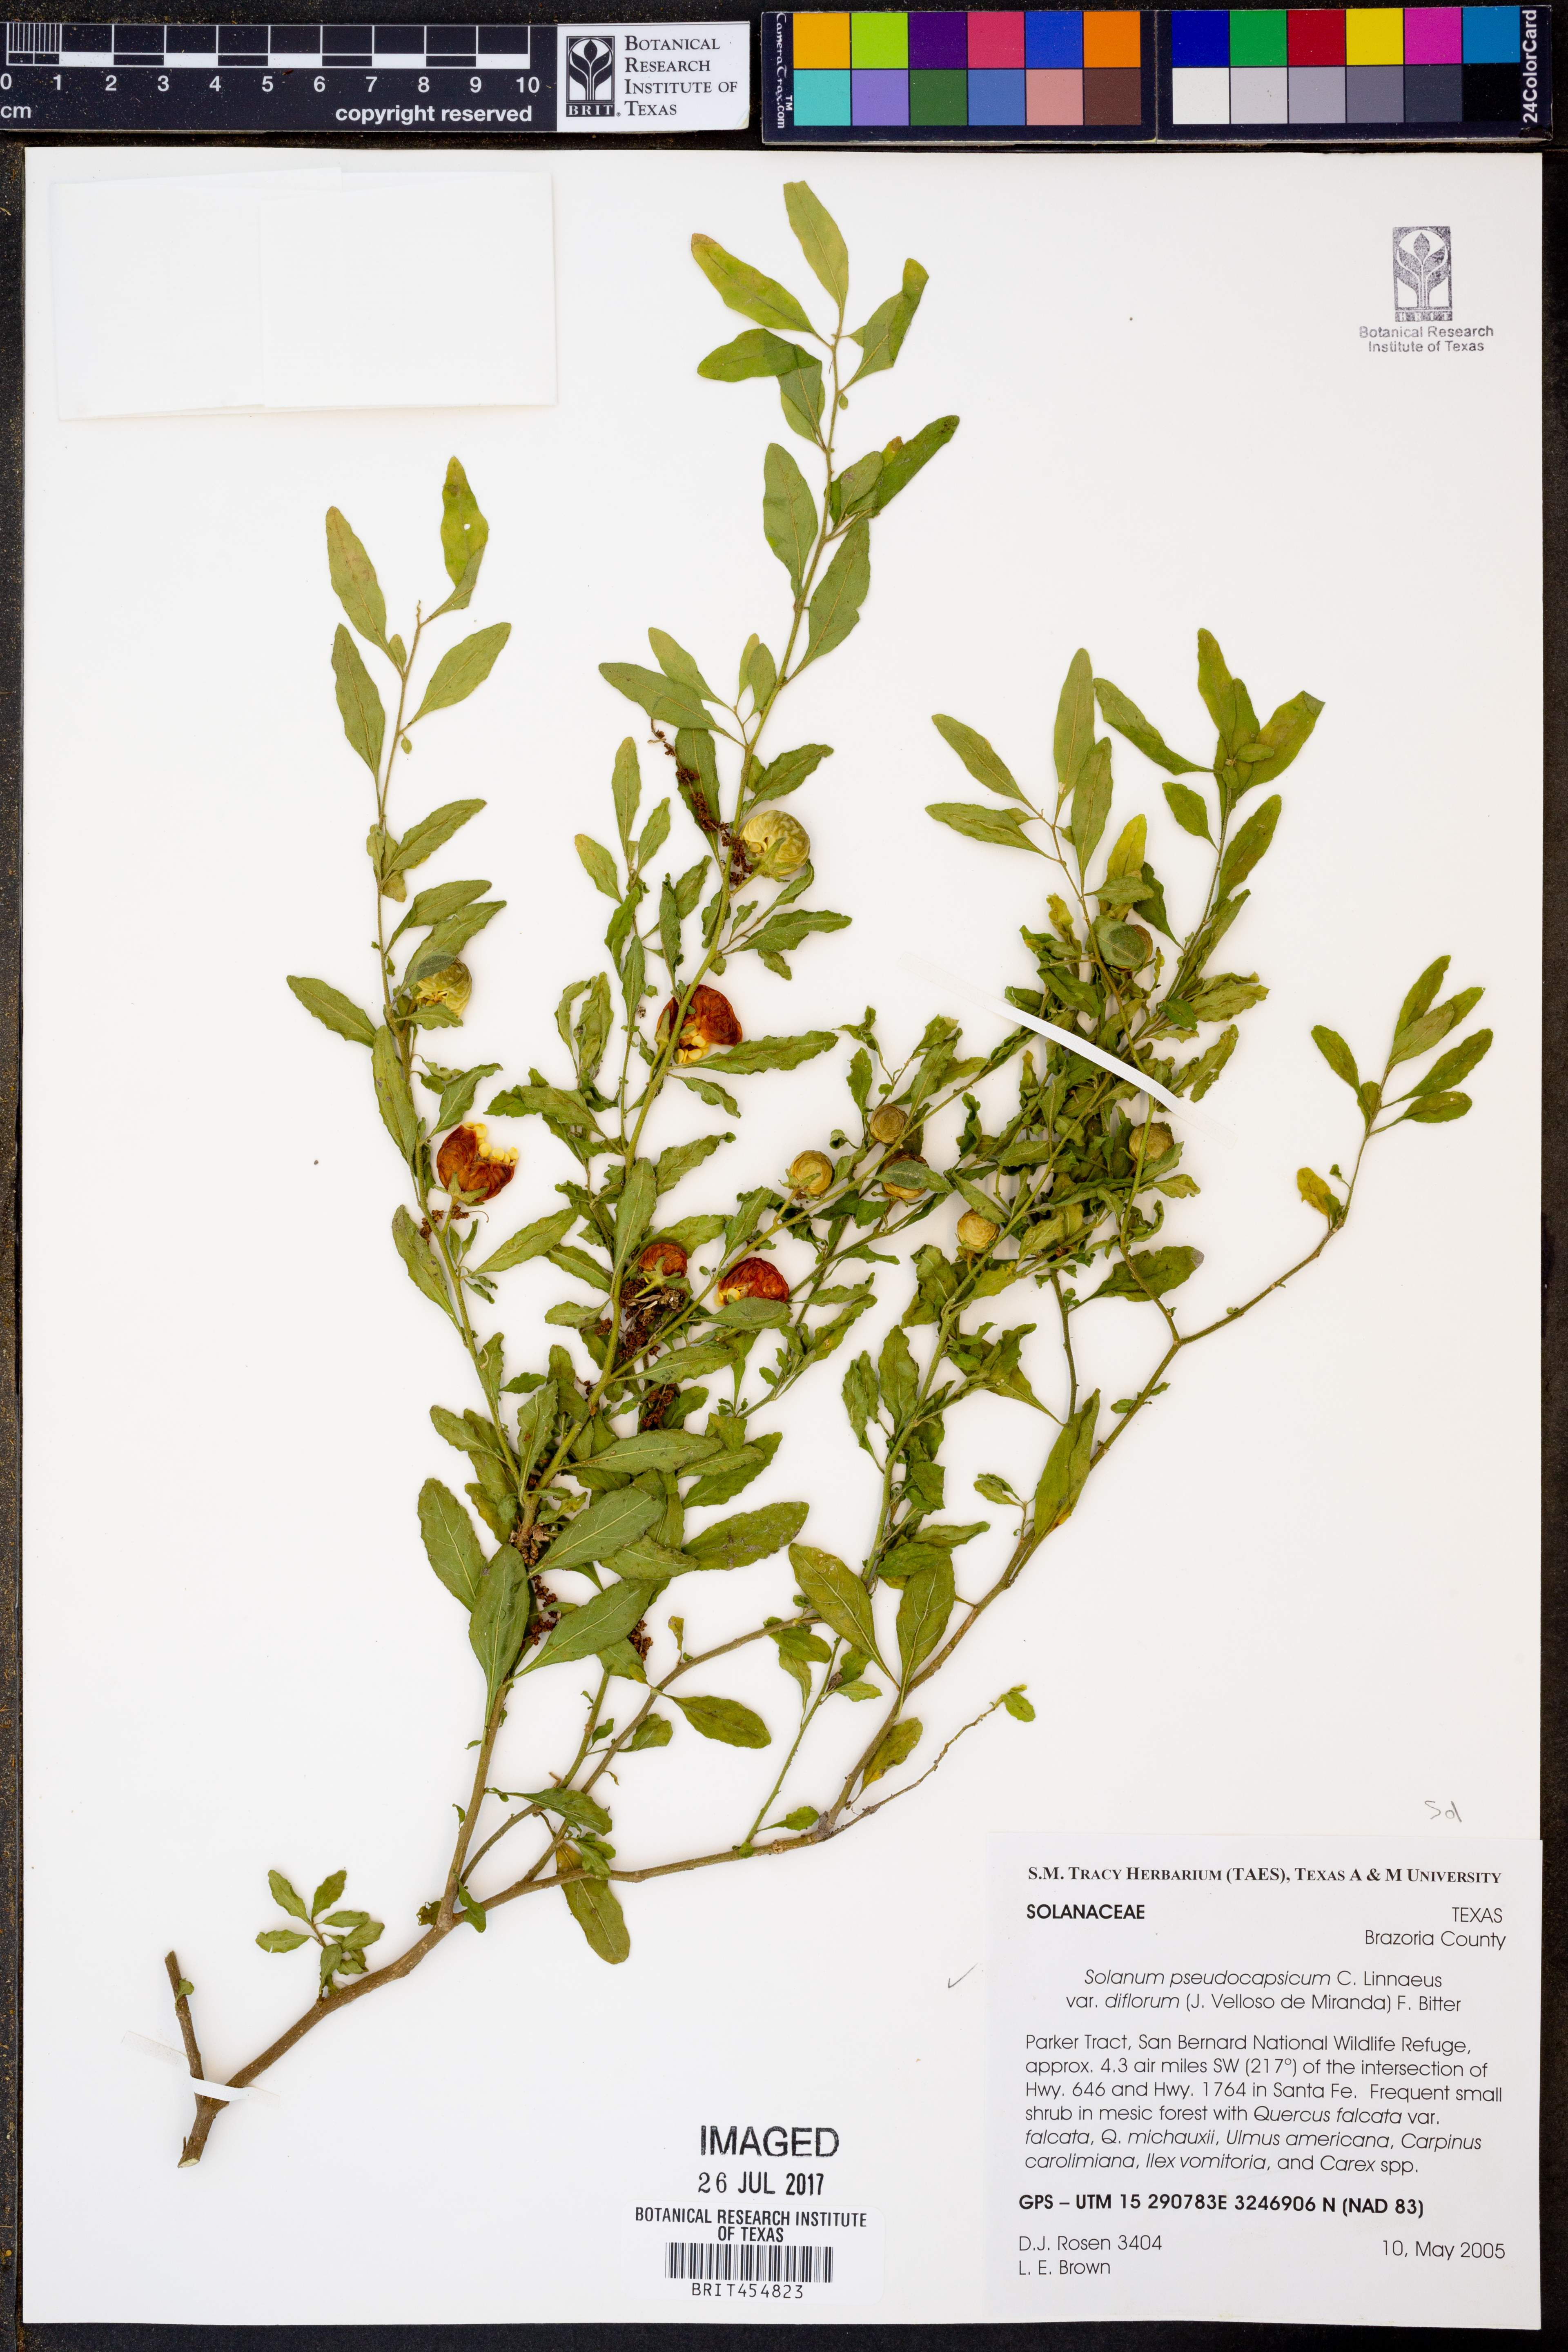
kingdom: Plantae
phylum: Tracheophyta
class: Magnoliopsida
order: Solanales
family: Solanaceae
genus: Solanum
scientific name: Solanum pseudocapsicum
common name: Jerusalem cherry
